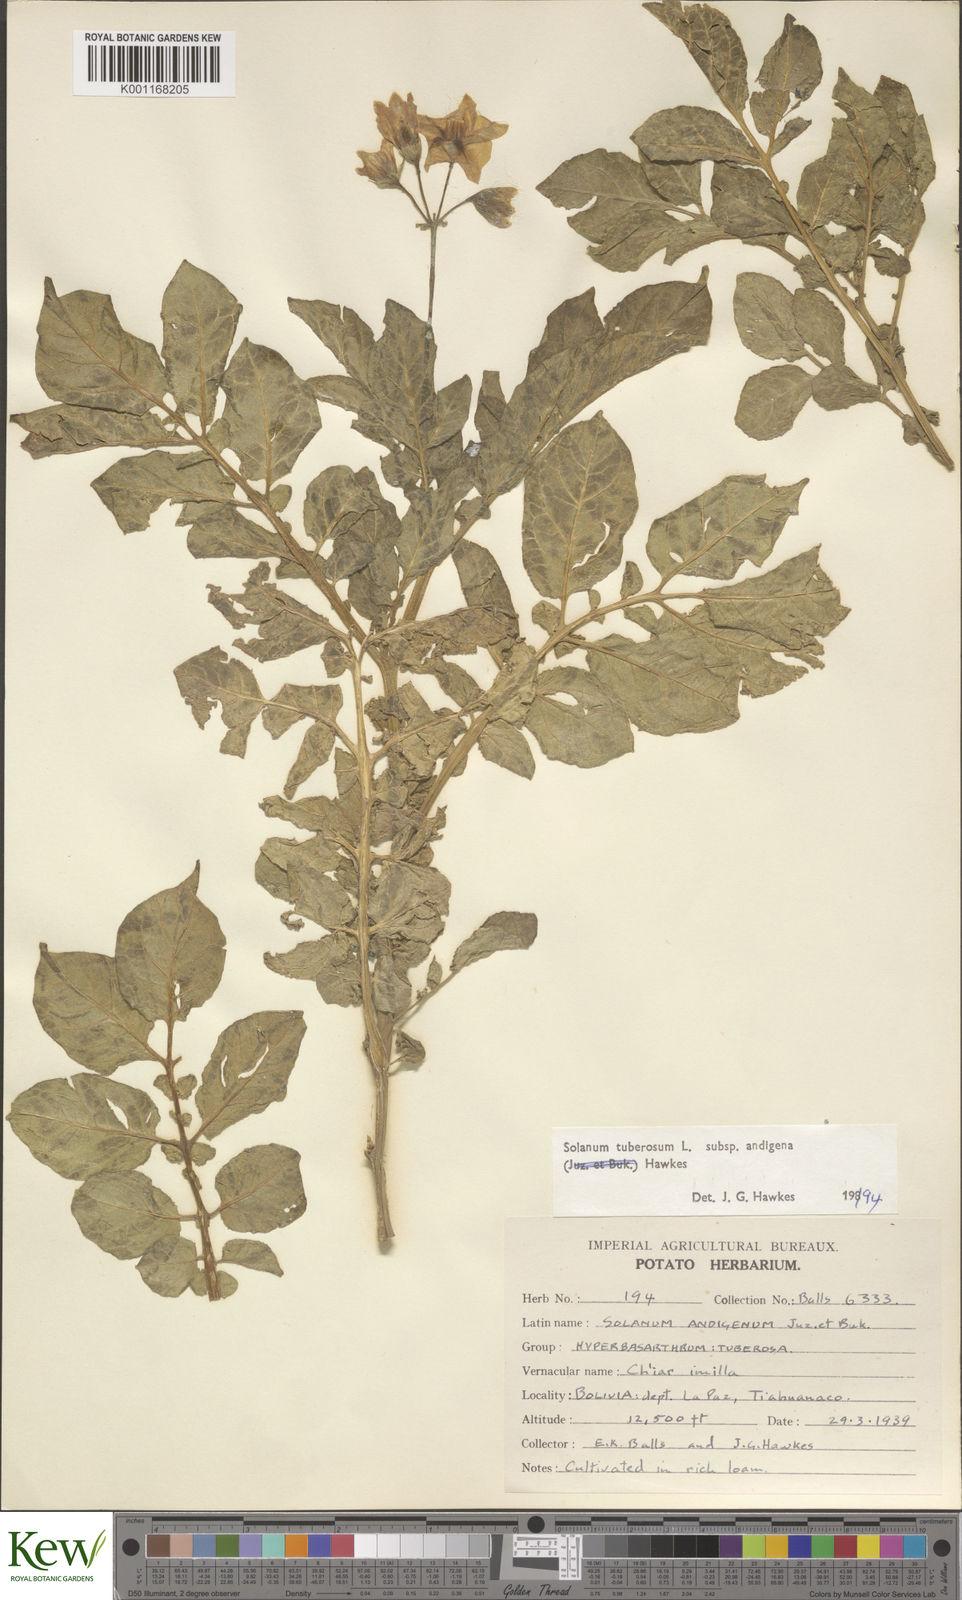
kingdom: Plantae
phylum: Tracheophyta
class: Magnoliopsida
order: Solanales
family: Solanaceae
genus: Solanum
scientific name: Solanum tuberosum
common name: Potato
